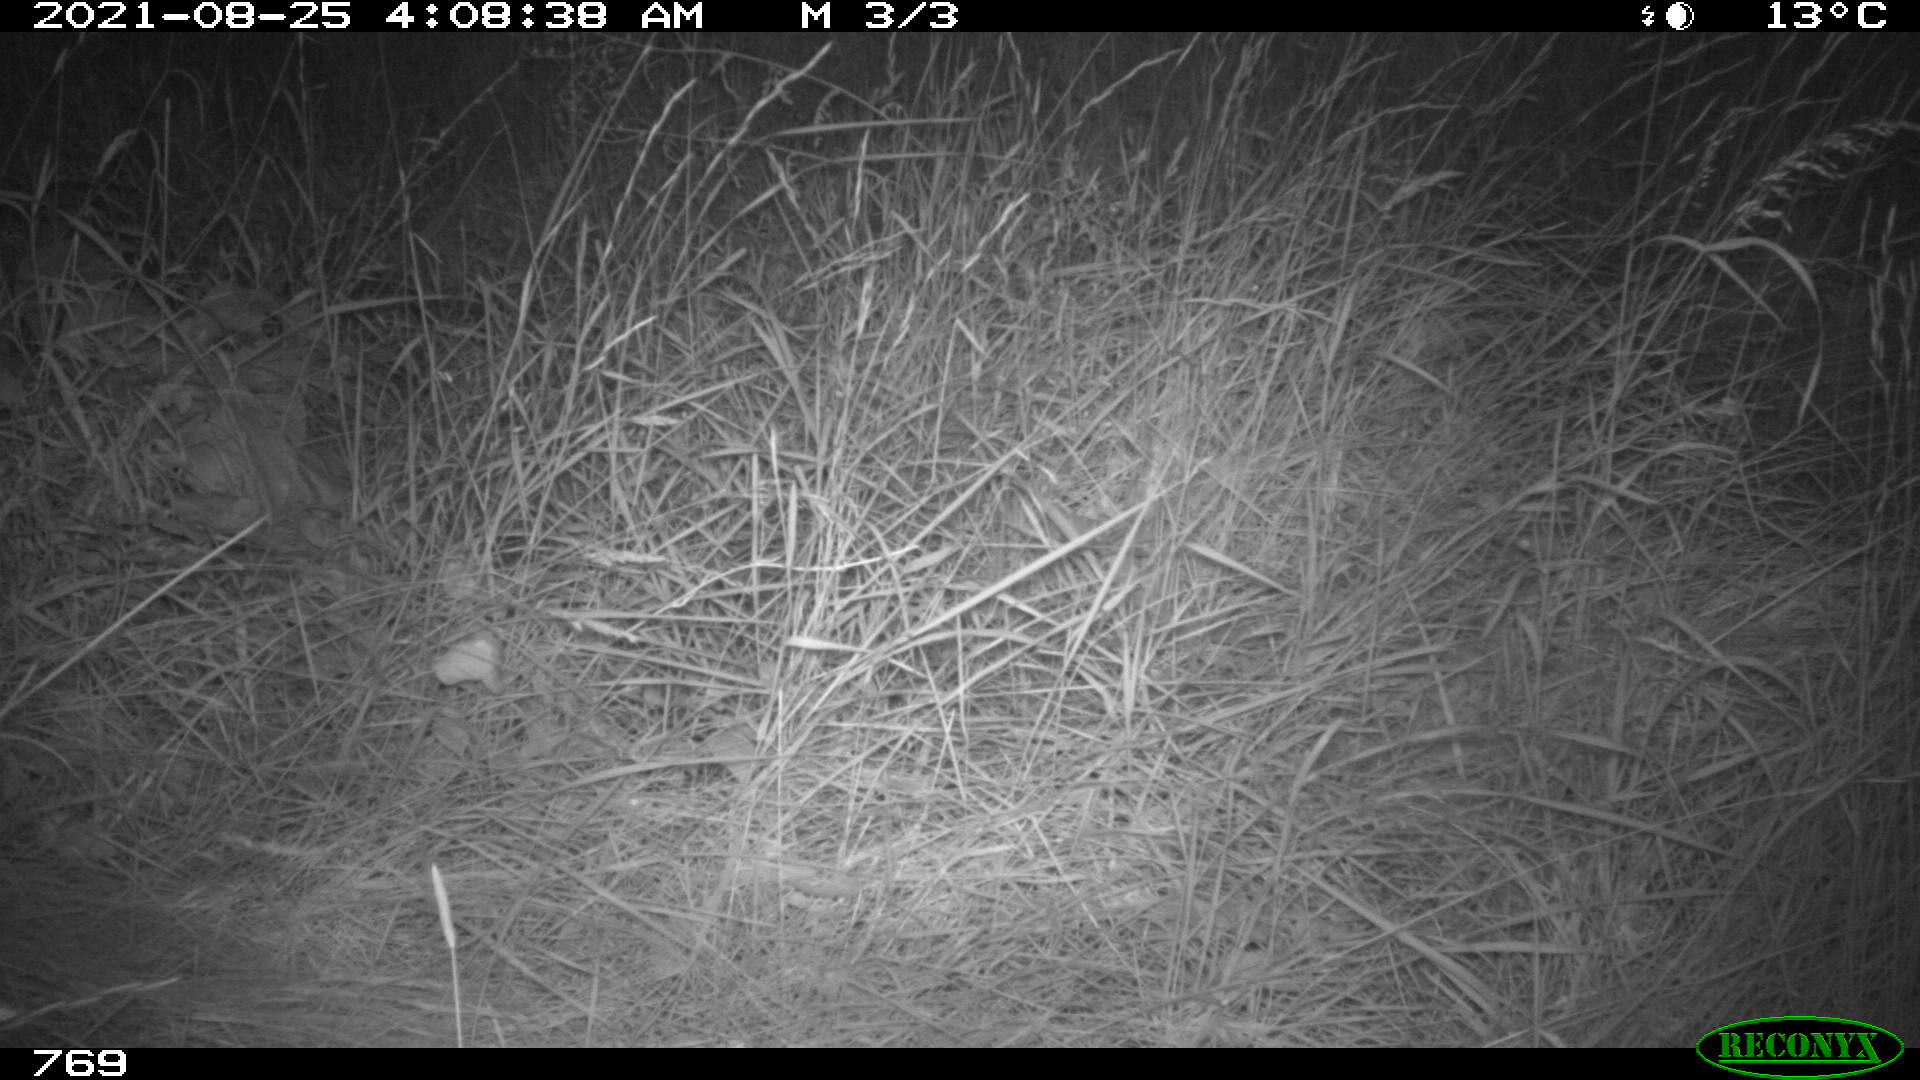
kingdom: Animalia
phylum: Chordata
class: Mammalia
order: Artiodactyla
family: Cervidae
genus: Capreolus
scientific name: Capreolus capreolus
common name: Western roe deer
